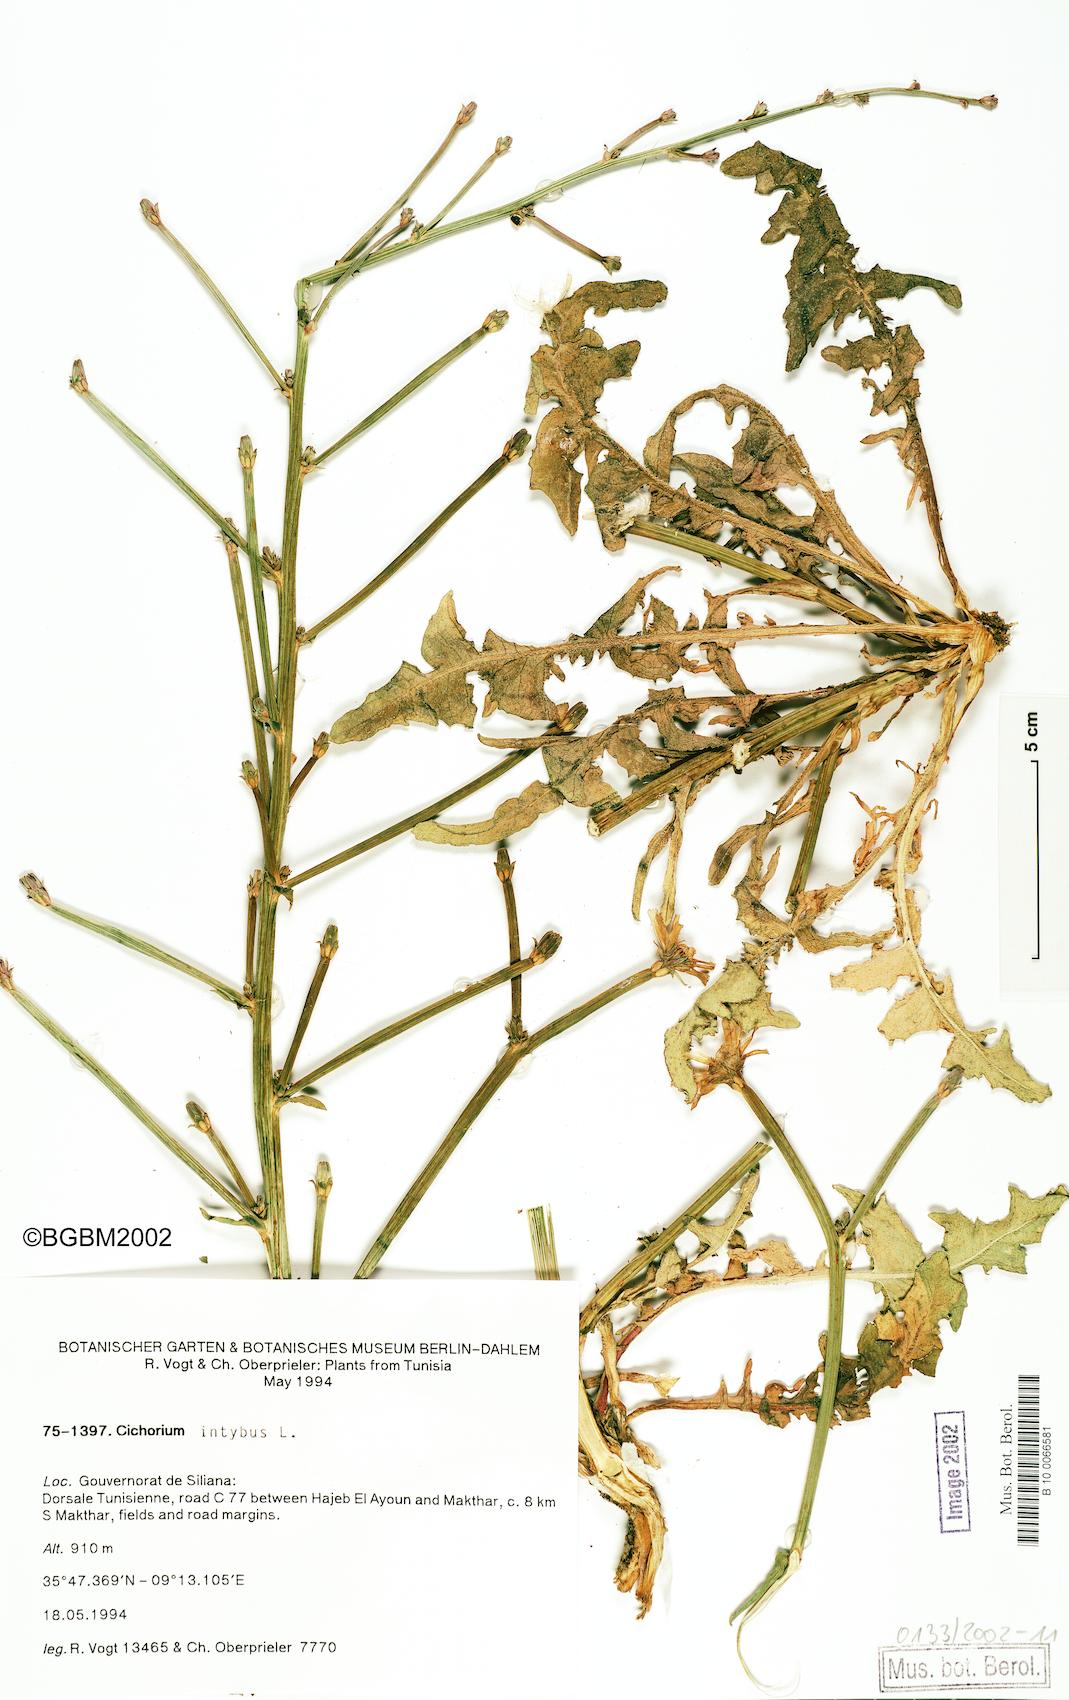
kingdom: Plantae
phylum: Tracheophyta
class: Magnoliopsida
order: Asterales
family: Asteraceae
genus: Cichorium
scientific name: Cichorium intybus
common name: Chicory
